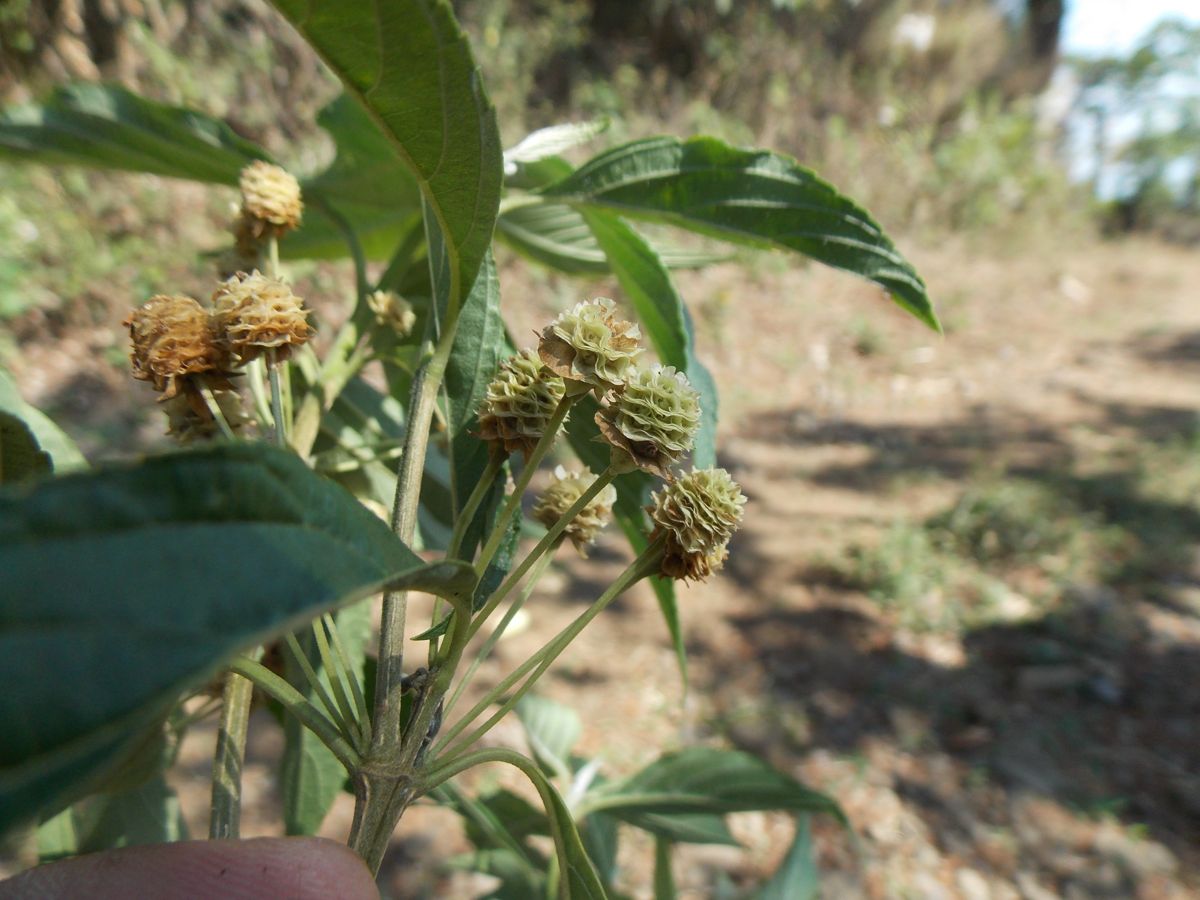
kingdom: Plantae
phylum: Tracheophyta
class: Magnoliopsida
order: Lamiales
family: Verbenaceae
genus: Lippia
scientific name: Lippia myriocephala
